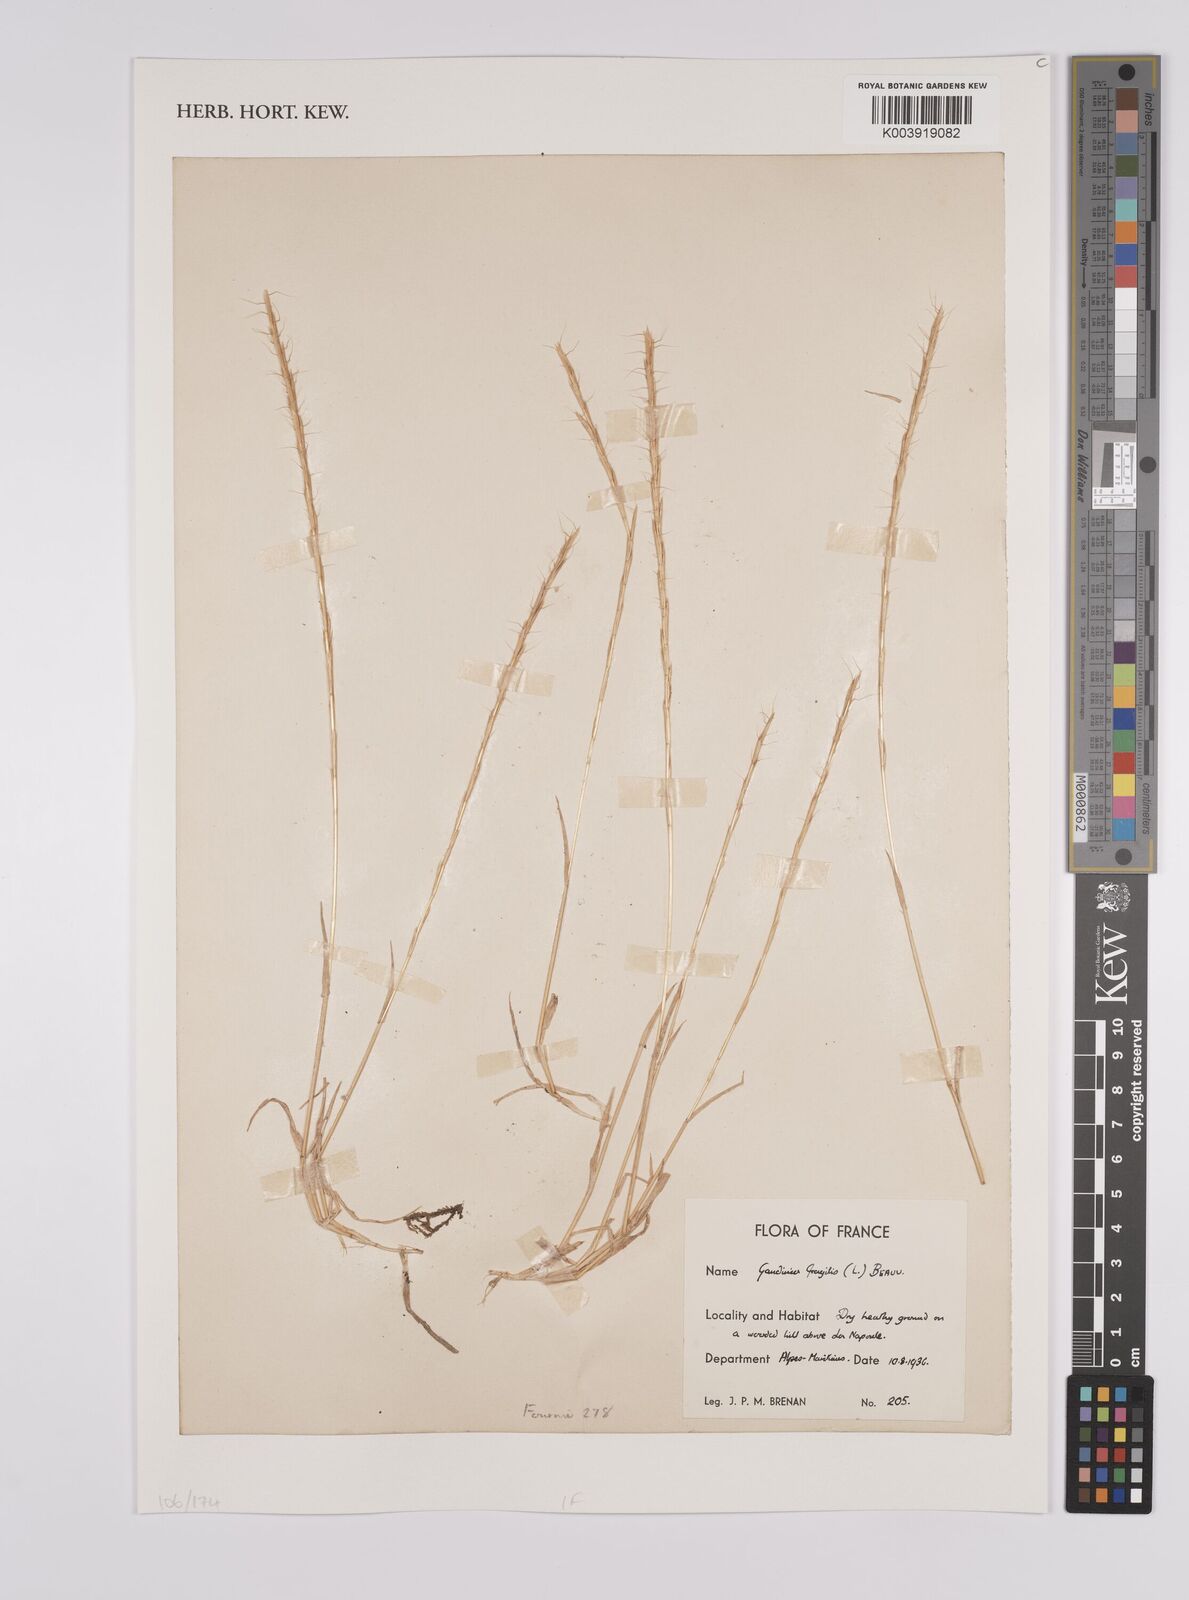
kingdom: Plantae
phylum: Tracheophyta
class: Liliopsida
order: Poales
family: Poaceae
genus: Gaudinia
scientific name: Gaudinia fragilis
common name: French oat-grass
